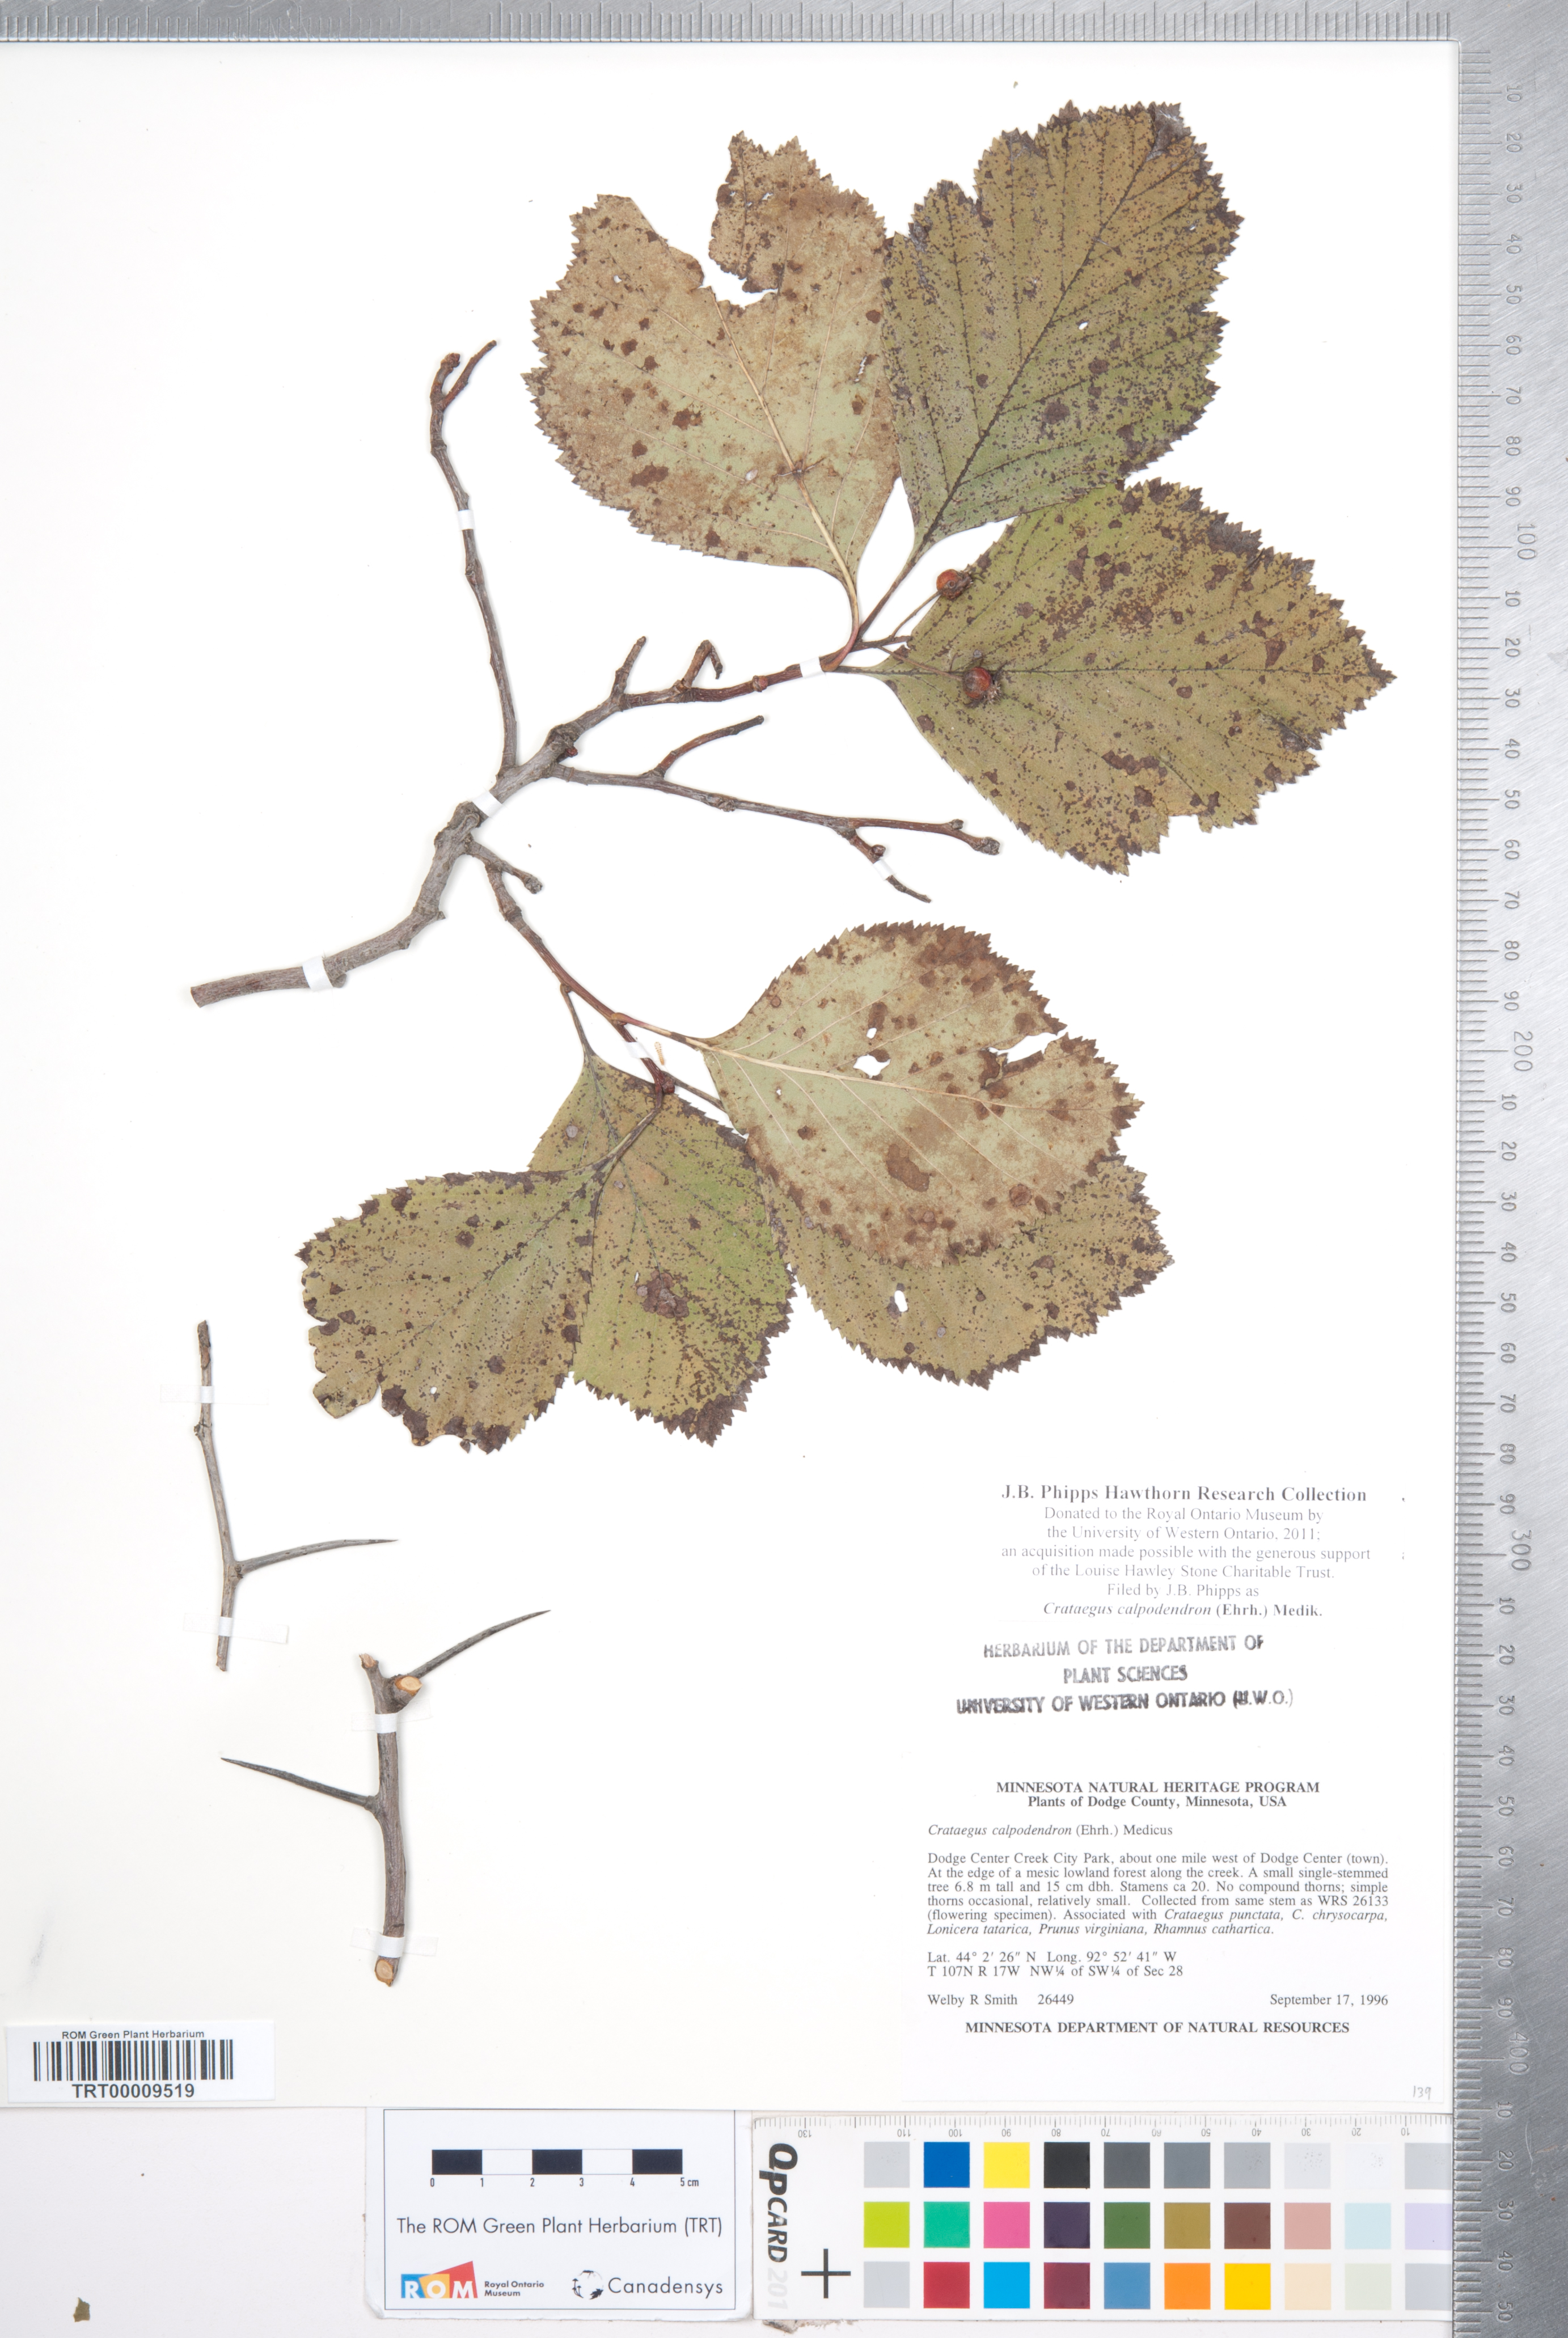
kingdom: Plantae
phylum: Tracheophyta
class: Magnoliopsida
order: Rosales
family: Rosaceae
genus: Crataegus
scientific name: Crataegus calpodendron
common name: Pear hawthorn
